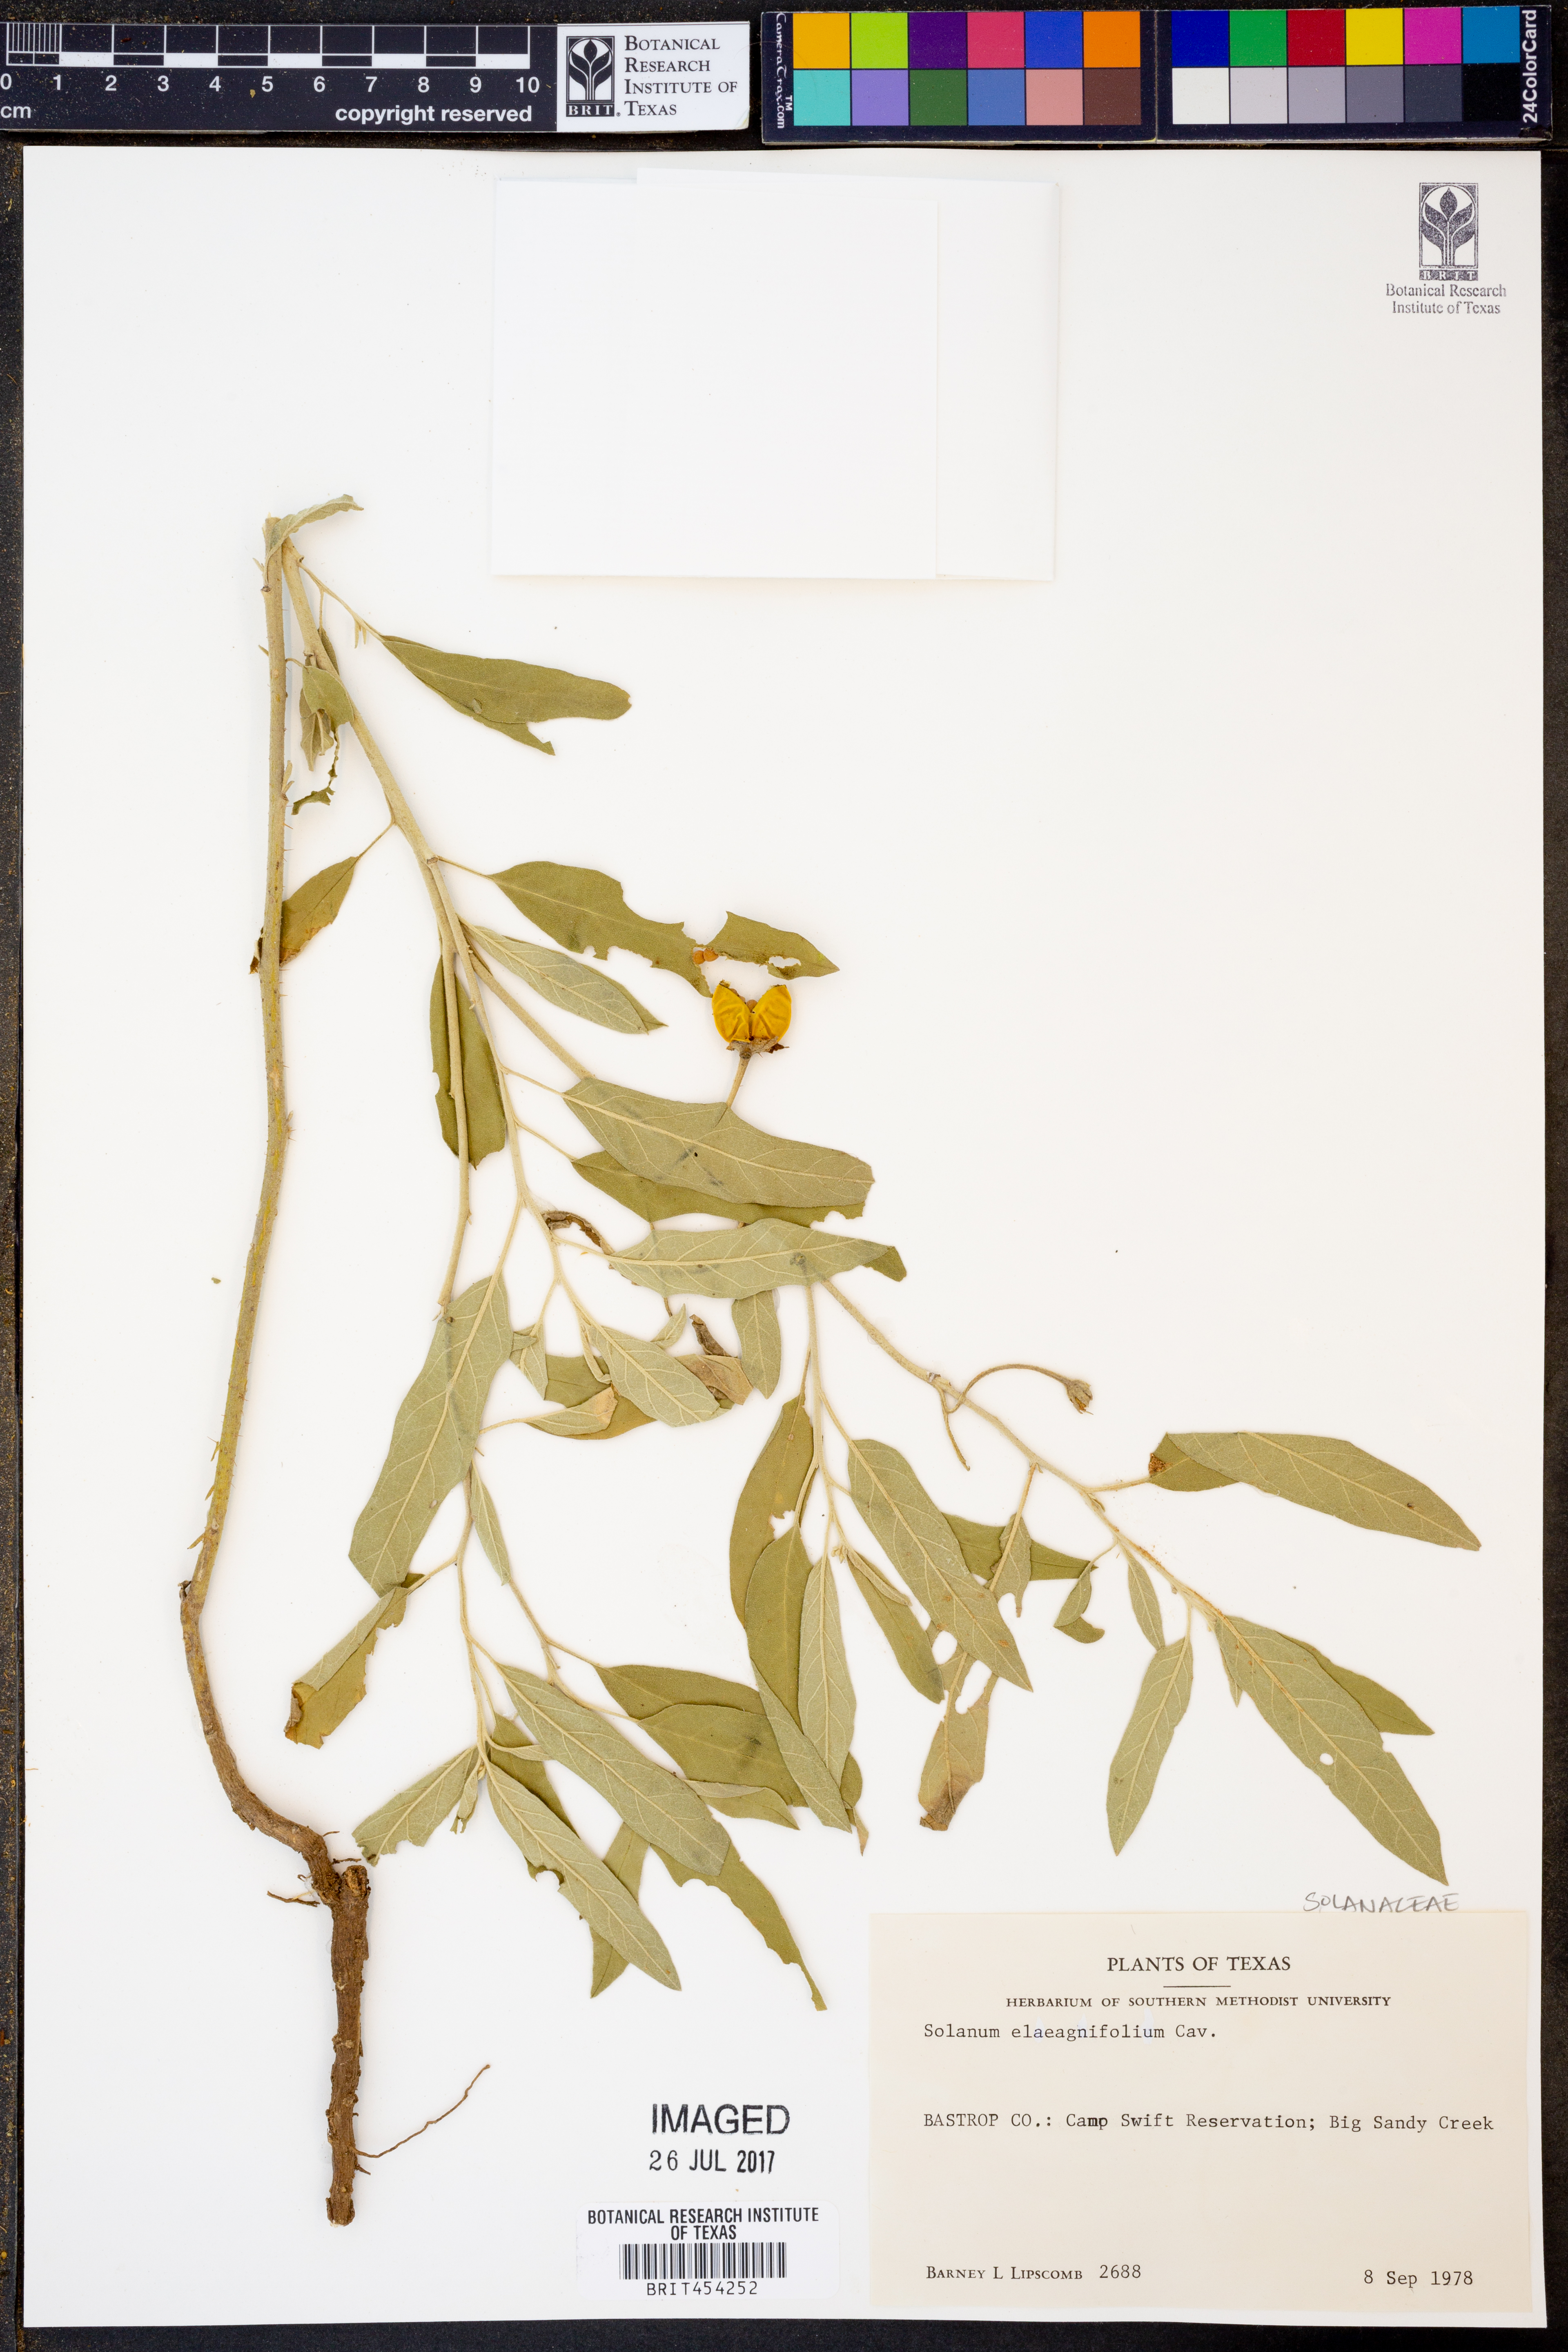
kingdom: Plantae
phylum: Tracheophyta
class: Magnoliopsida
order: Solanales
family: Solanaceae
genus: Solanum
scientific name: Solanum elaeagnifolium
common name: Silverleaf nightshade
